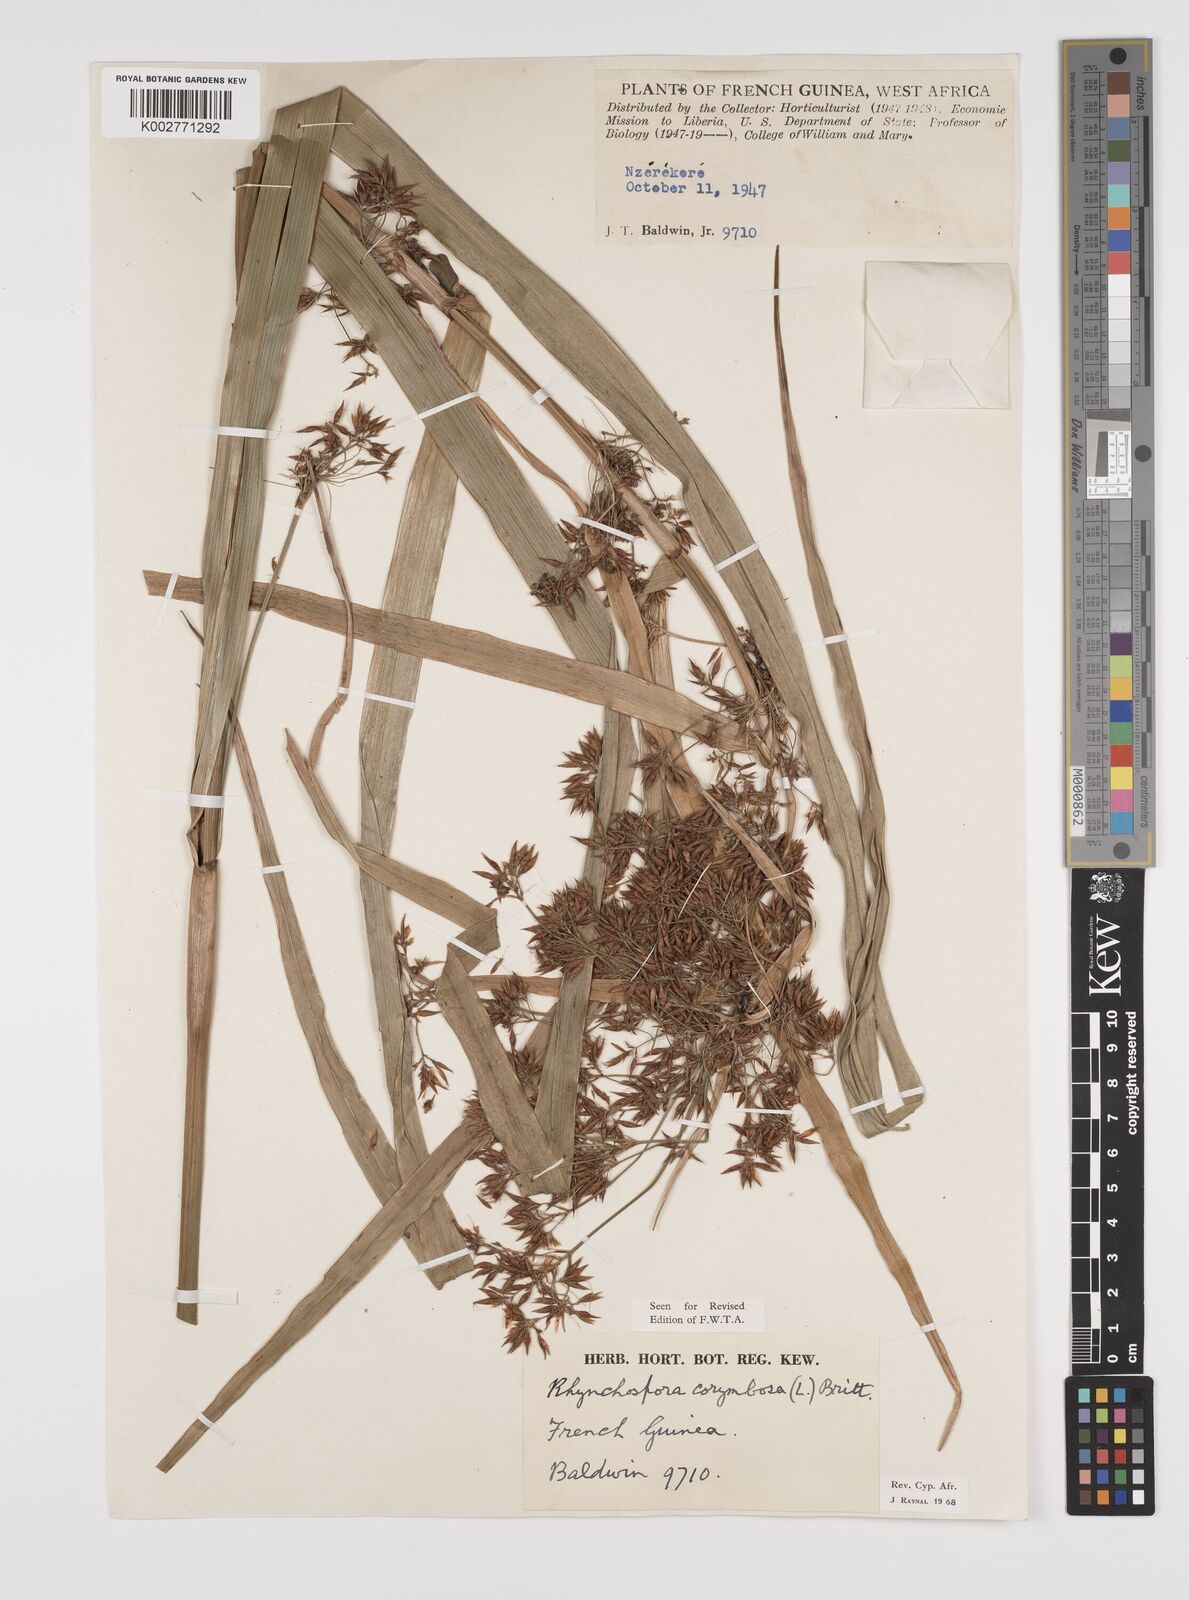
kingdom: Plantae
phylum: Tracheophyta
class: Liliopsida
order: Poales
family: Cyperaceae
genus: Rhynchospora
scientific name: Rhynchospora corymbosa
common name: Golden beak sedge
